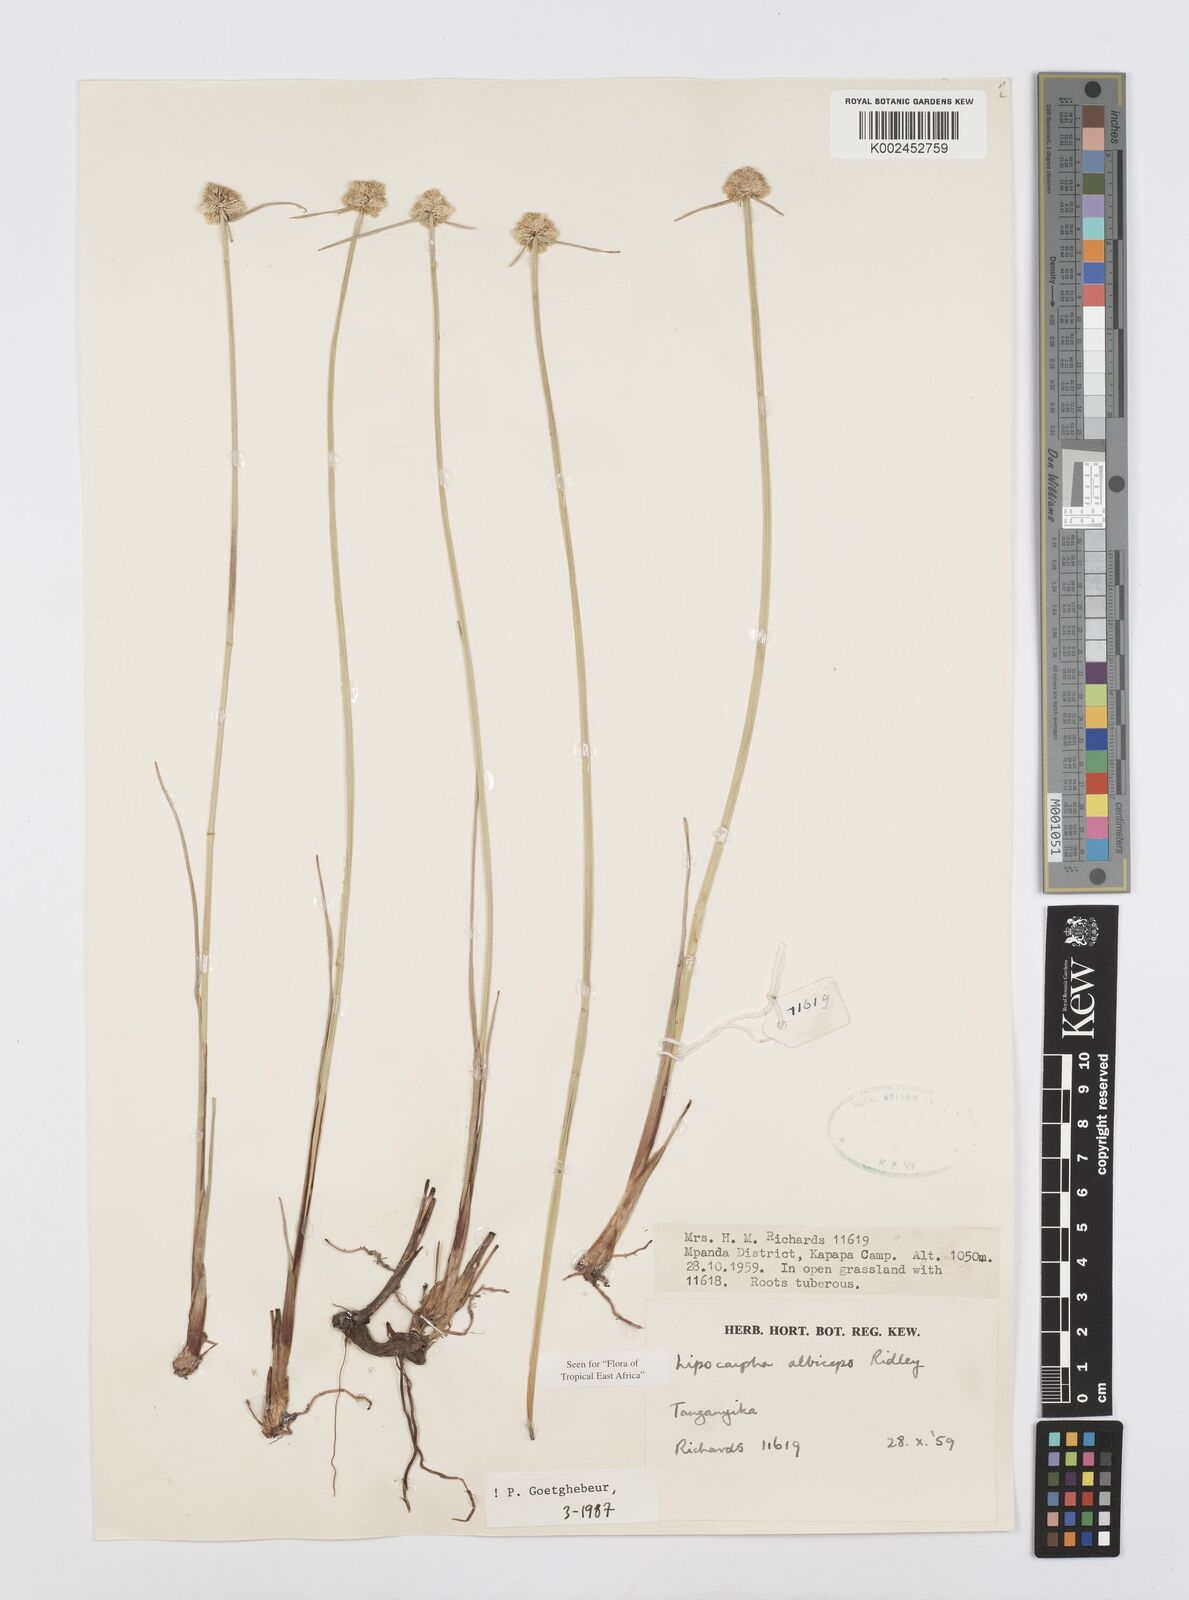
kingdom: Plantae
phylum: Tracheophyta
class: Liliopsida
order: Poales
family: Cyperaceae
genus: Cyperus
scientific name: Cyperus albiceps
